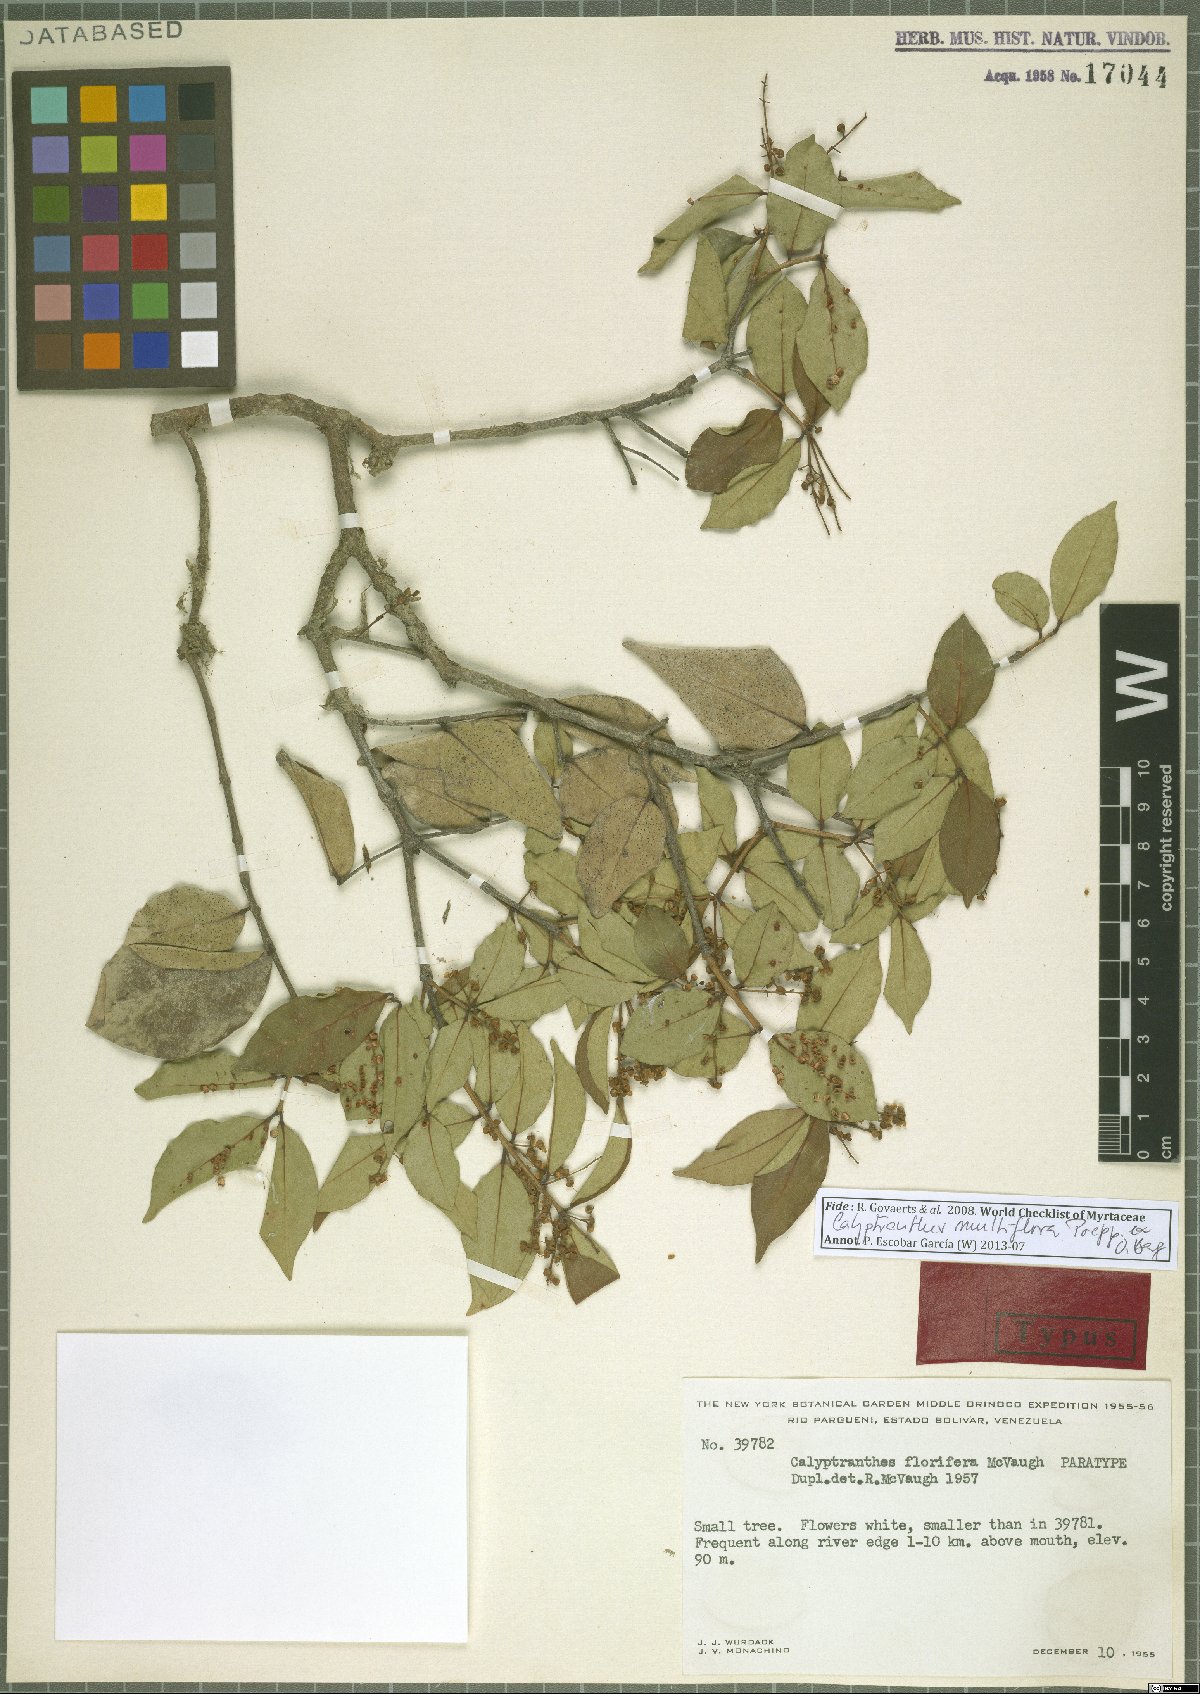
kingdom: Plantae
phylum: Tracheophyta
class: Magnoliopsida
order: Myrtales
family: Myrtaceae
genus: Myrcia
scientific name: Myrcia aulomyrcioides
